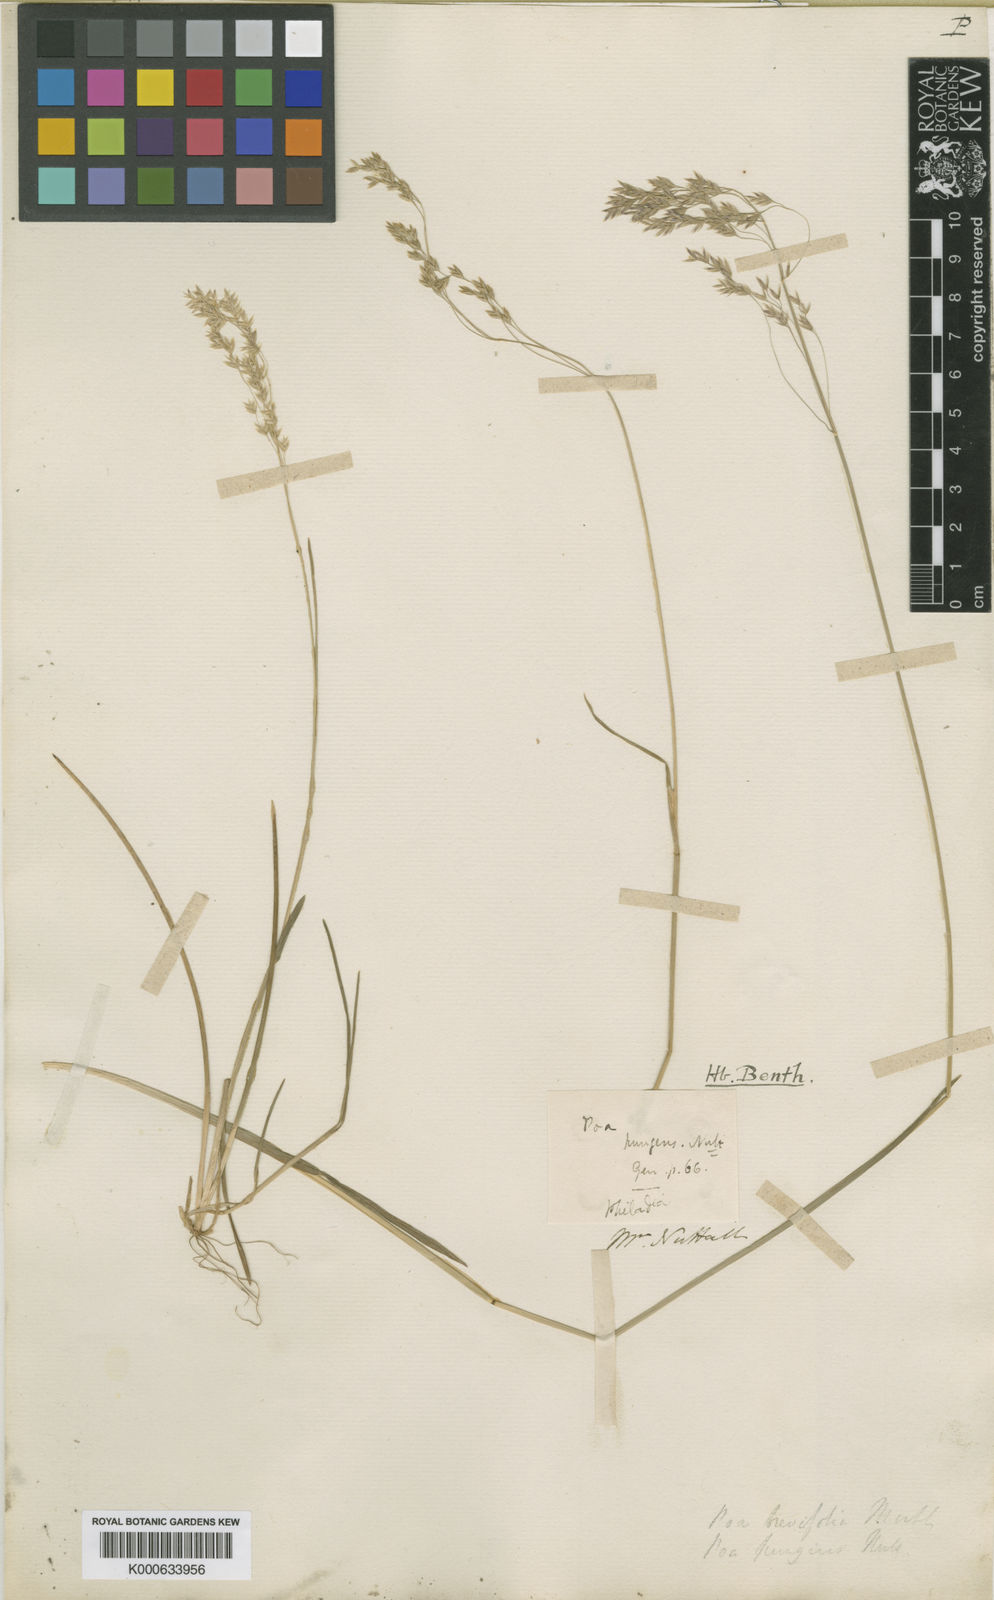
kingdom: Plantae
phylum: Tracheophyta
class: Liliopsida
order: Poales
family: Poaceae
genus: Poa
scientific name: Poa cuspidata
